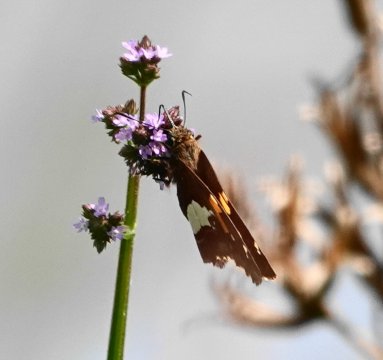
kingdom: Animalia
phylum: Arthropoda
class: Insecta
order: Lepidoptera
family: Hesperiidae
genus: Epargyreus
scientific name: Epargyreus clarus
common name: Silver-spotted Skipper
